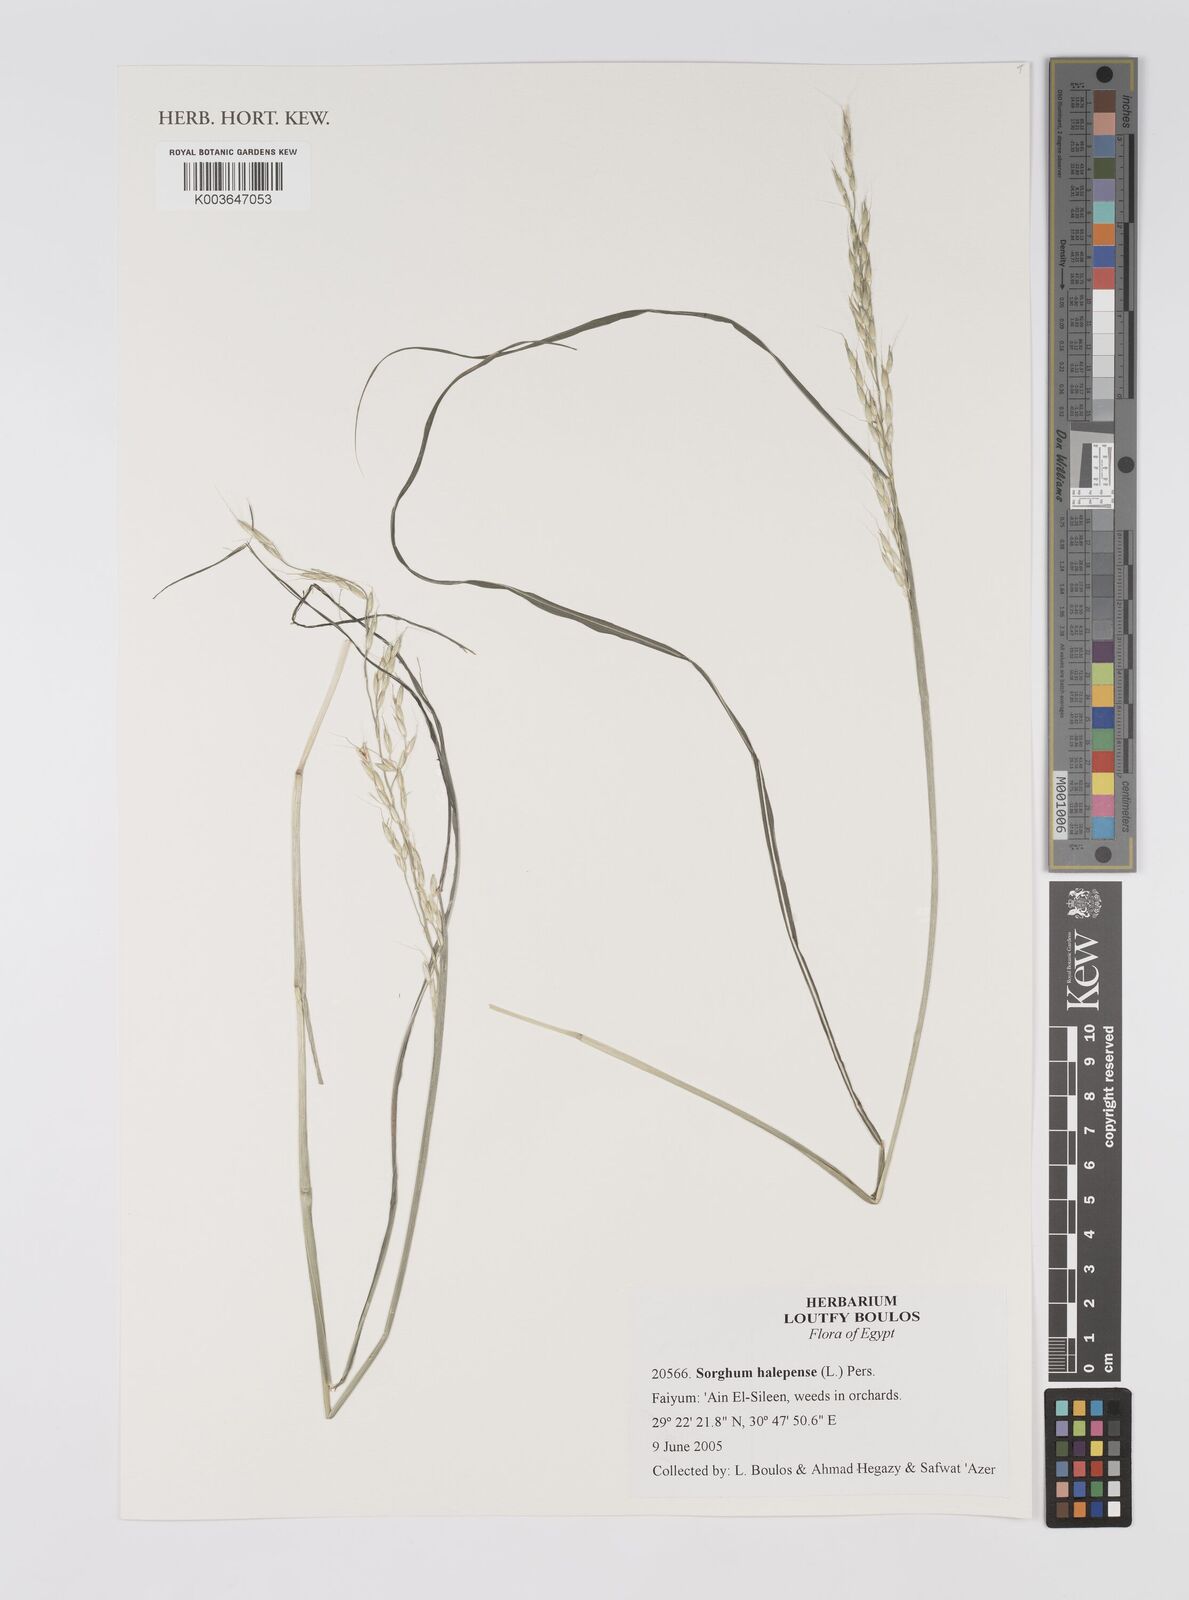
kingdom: Plantae
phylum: Tracheophyta
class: Liliopsida
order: Poales
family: Poaceae
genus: Sorghum
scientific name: Sorghum halepense
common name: Johnson-grass
